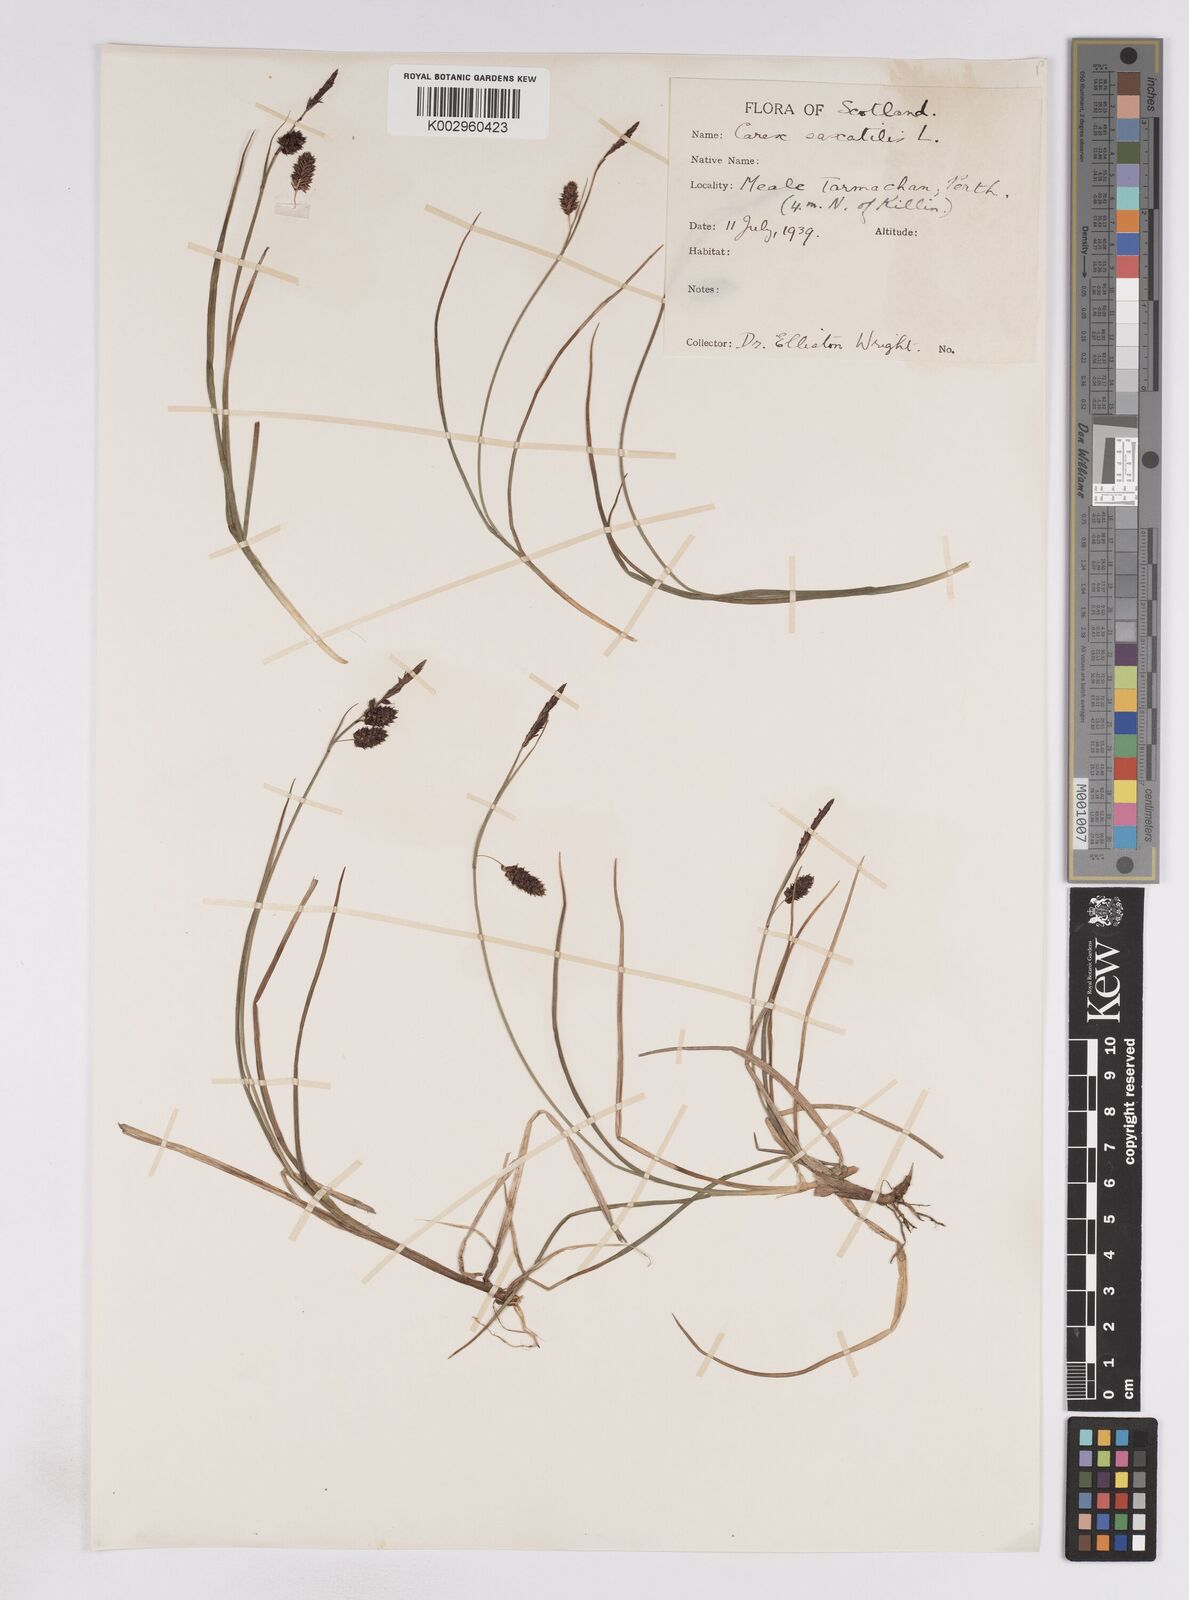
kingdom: Plantae
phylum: Tracheophyta
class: Liliopsida
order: Poales
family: Cyperaceae
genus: Carex
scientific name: Carex saxatilis
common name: Russet sedge
